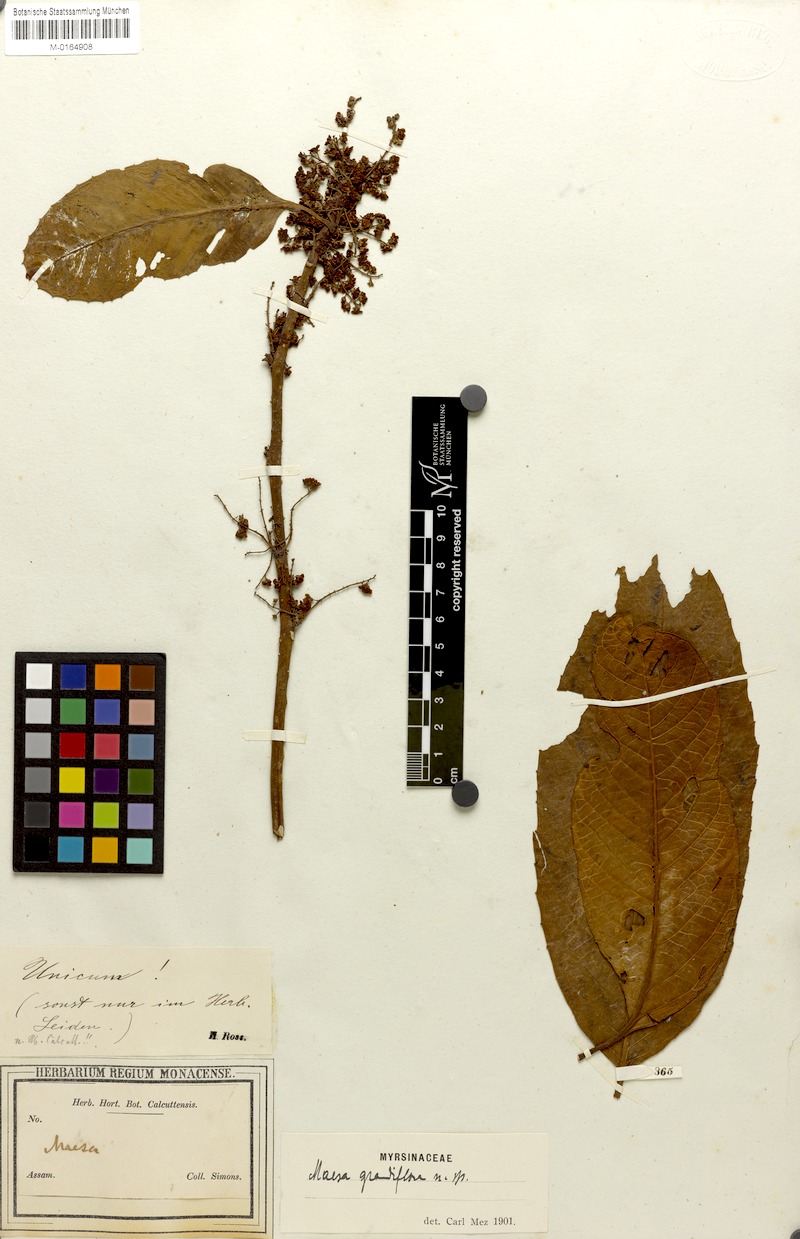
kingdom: Plantae
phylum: Tracheophyta
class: Magnoliopsida
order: Ericales
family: Primulaceae
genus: Maesa
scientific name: Maesa grandiflora
